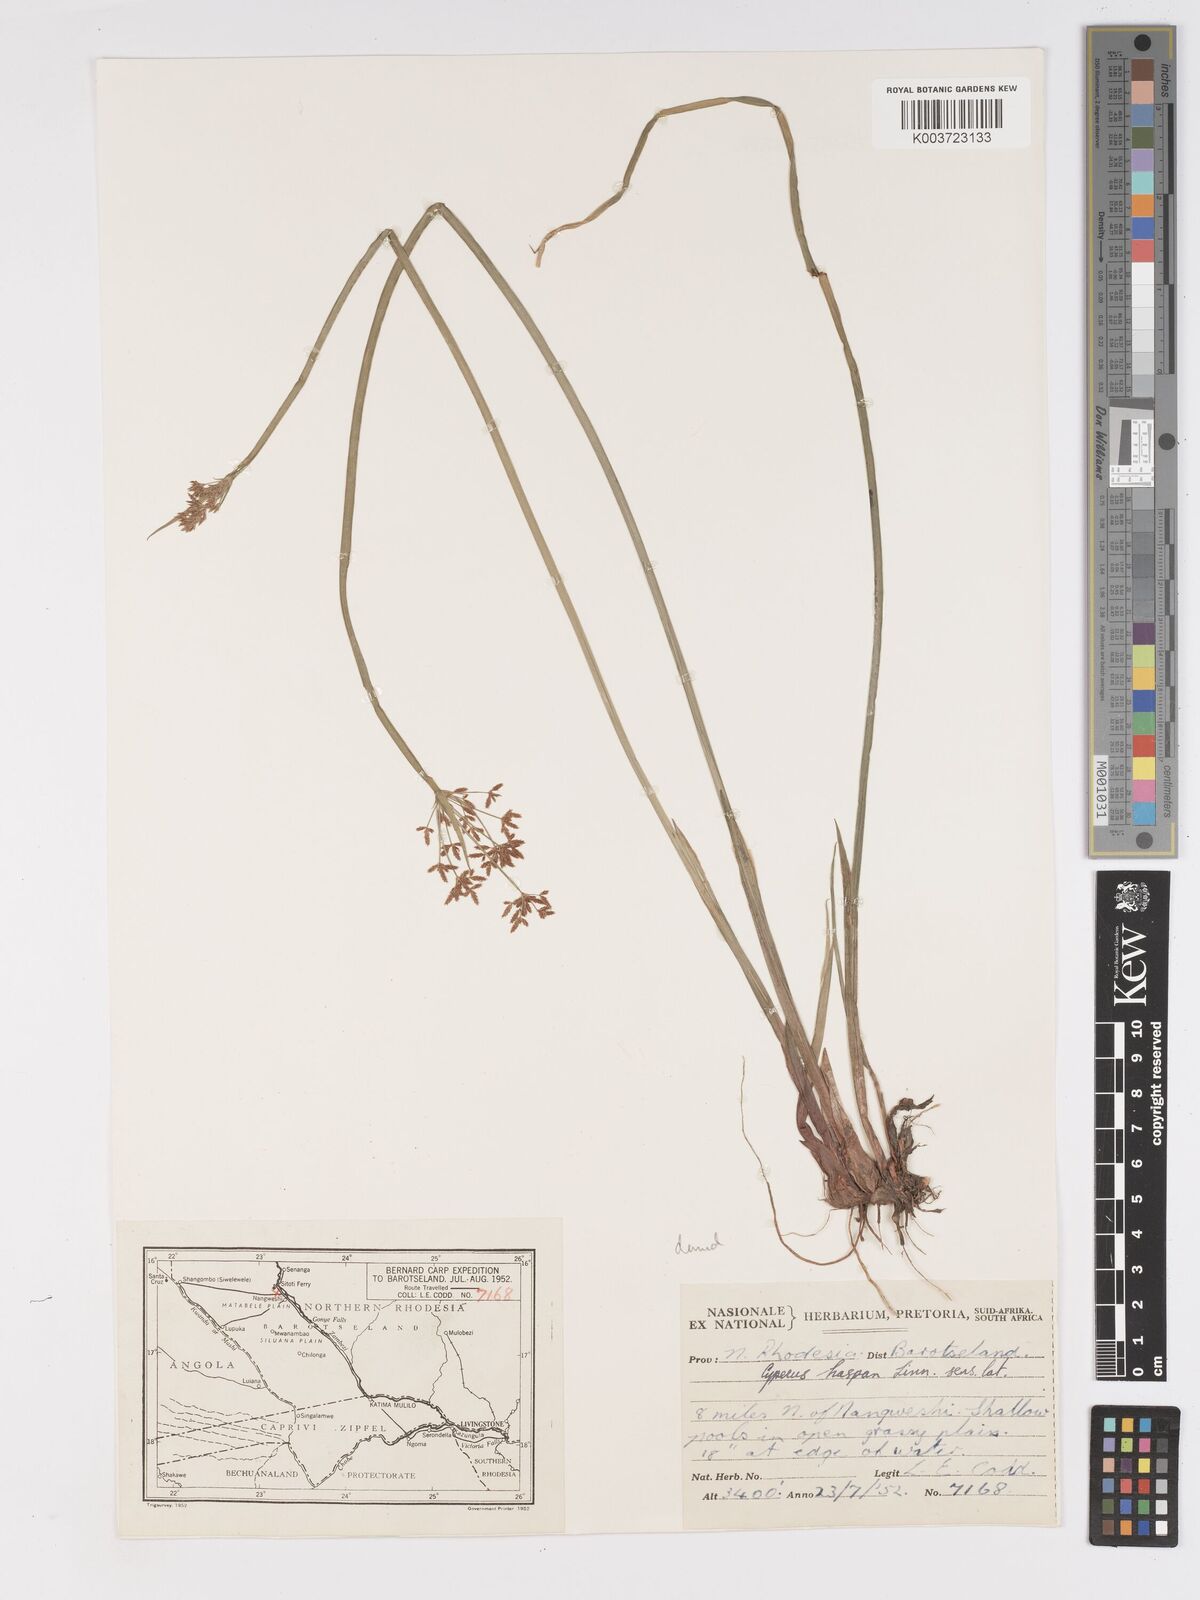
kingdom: Plantae
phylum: Tracheophyta
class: Liliopsida
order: Poales
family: Cyperaceae
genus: Cyperus
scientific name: Cyperus haspan
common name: Haspan flatsedge
